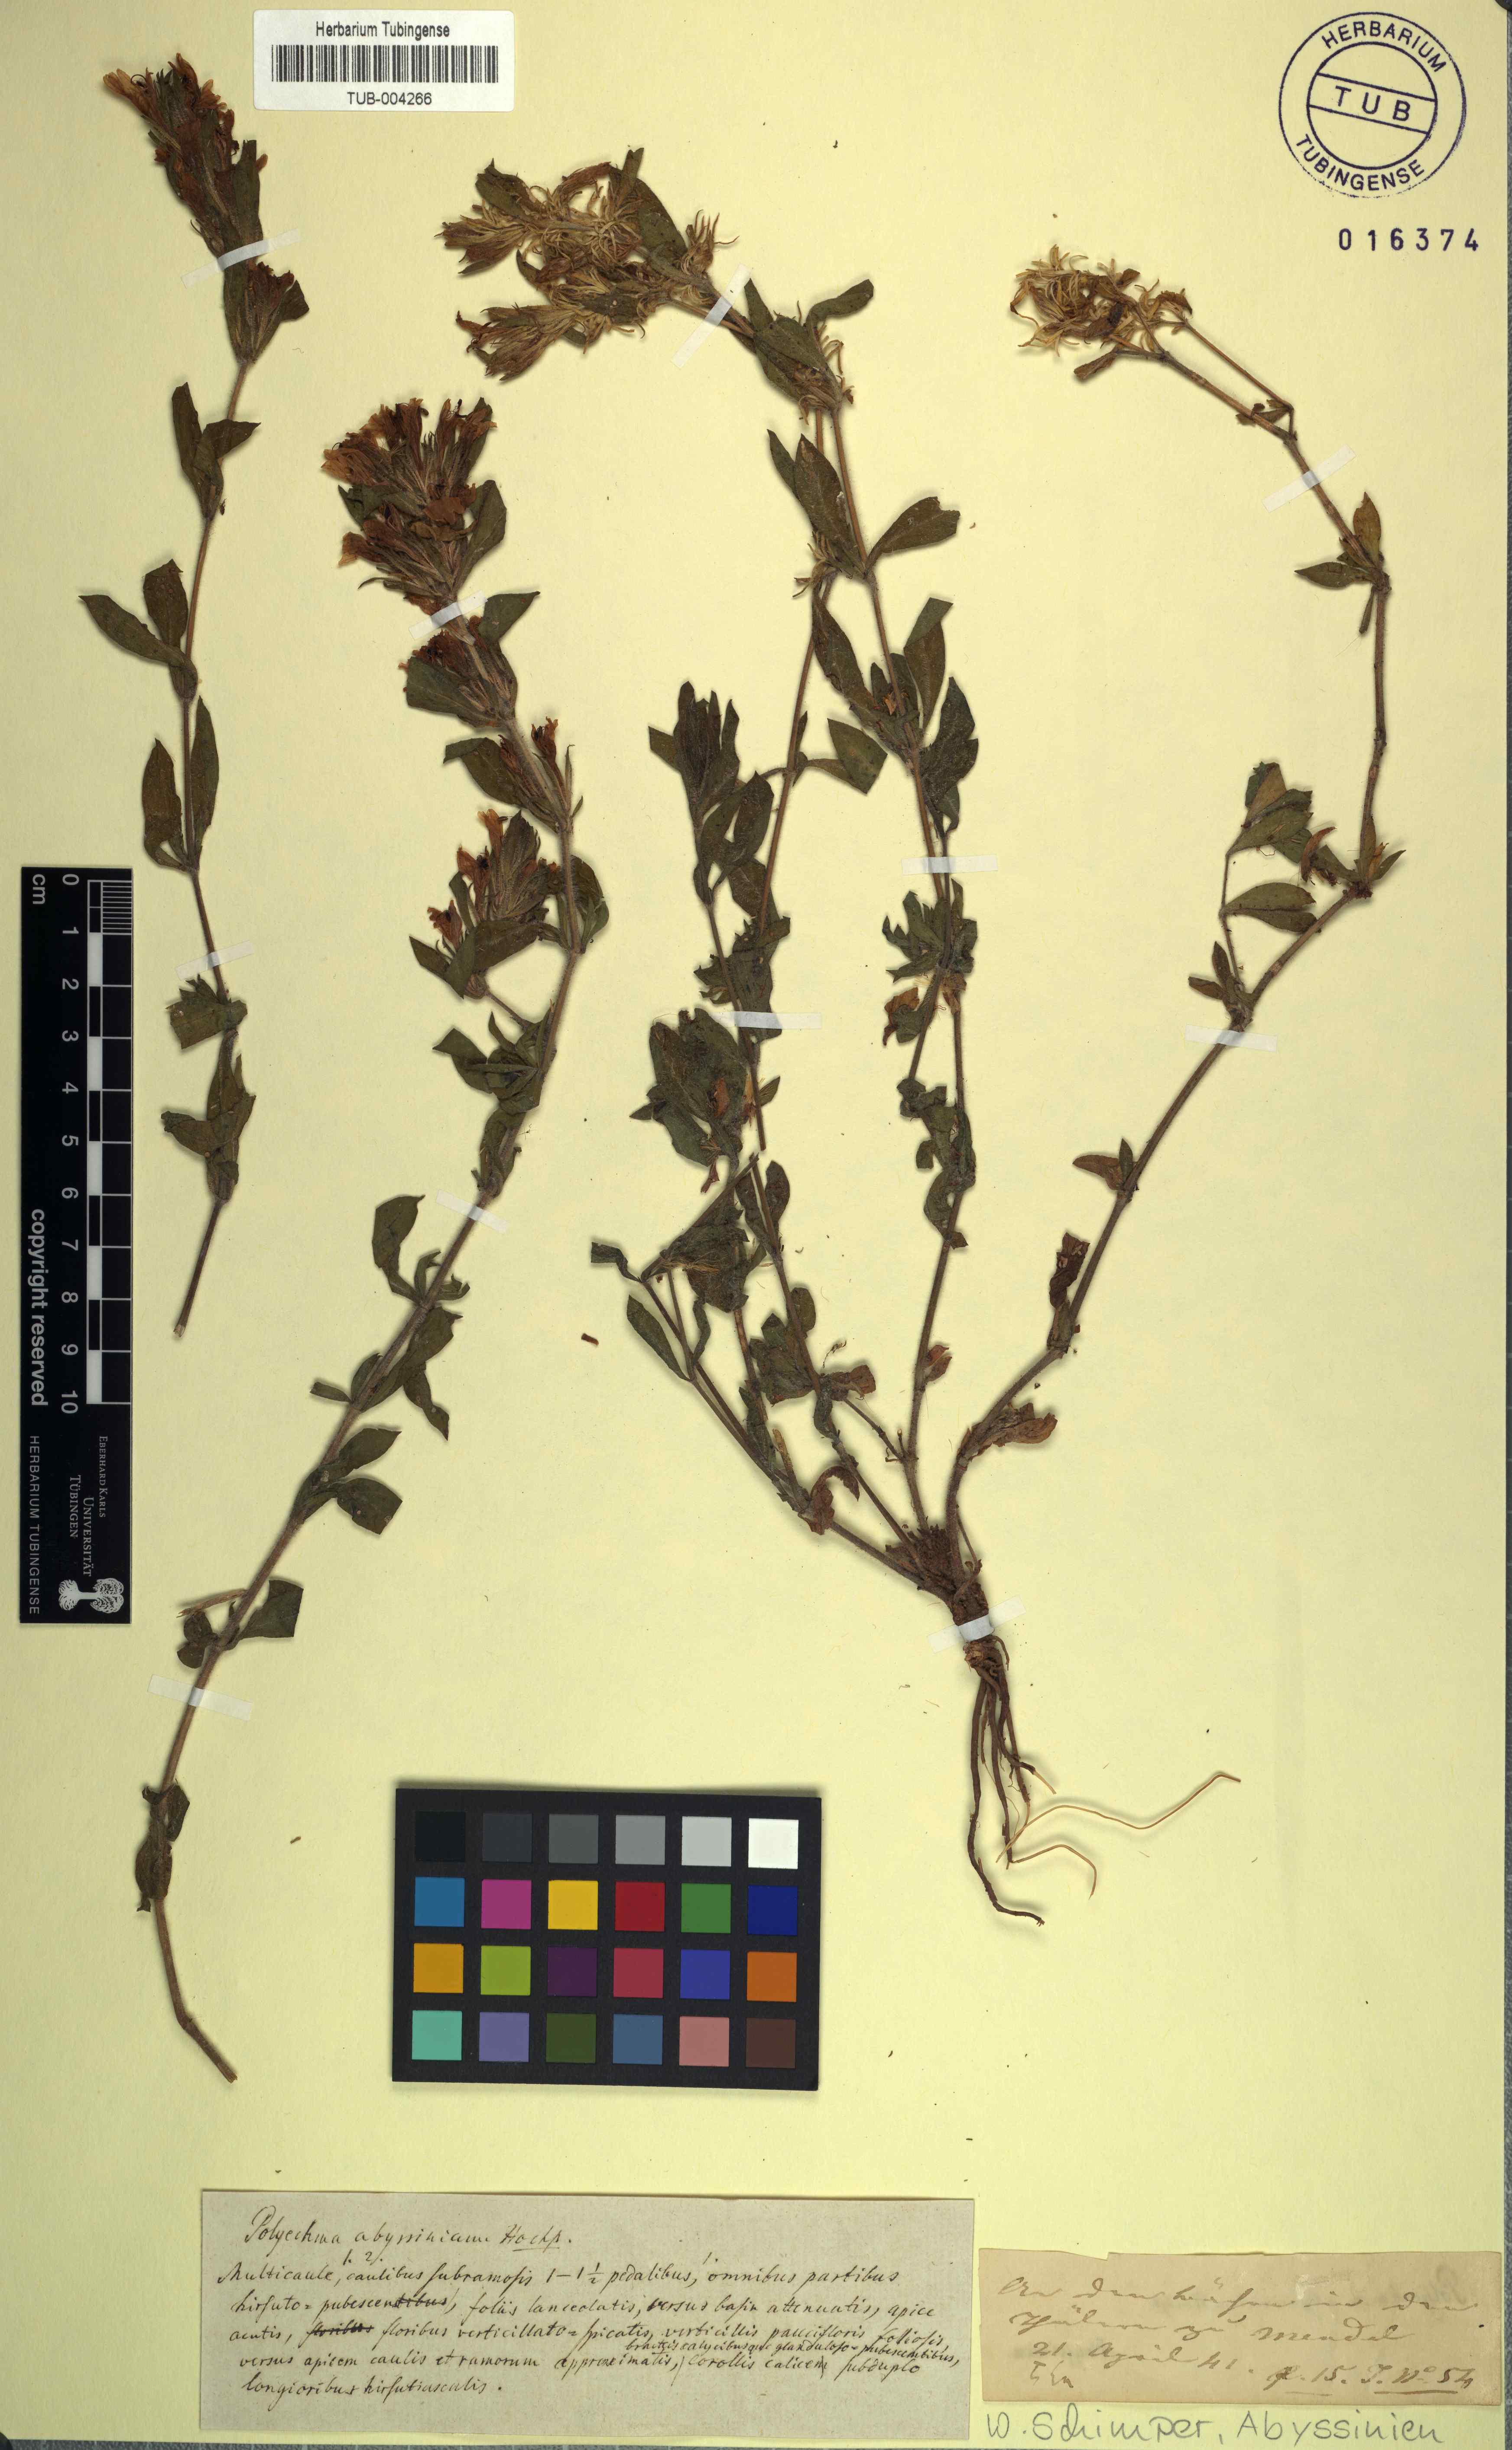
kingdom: Plantae
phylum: Tracheophyta
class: Magnoliopsida
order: Lamiales
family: Acanthaceae
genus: Hygrophila
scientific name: Hygrophila abyssinica
